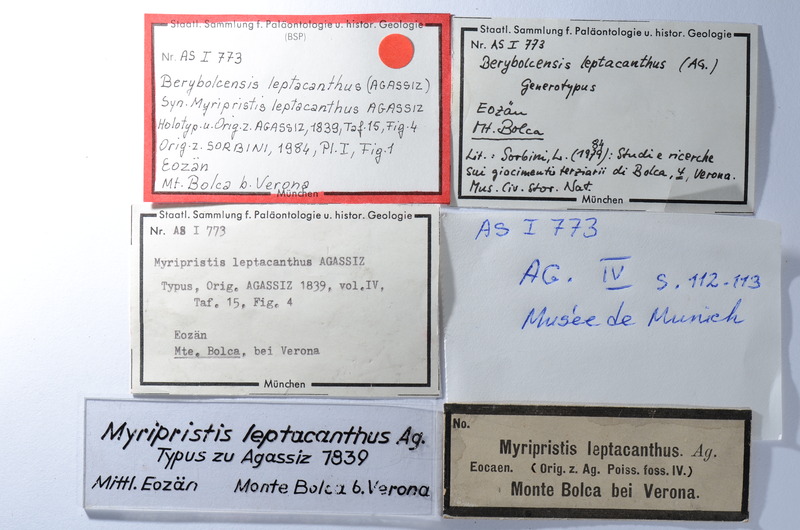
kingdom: Animalia
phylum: Chordata
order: Beryciformes
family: Holocentridae
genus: Berybolcensis
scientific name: Berybolcensis leptacanthus
